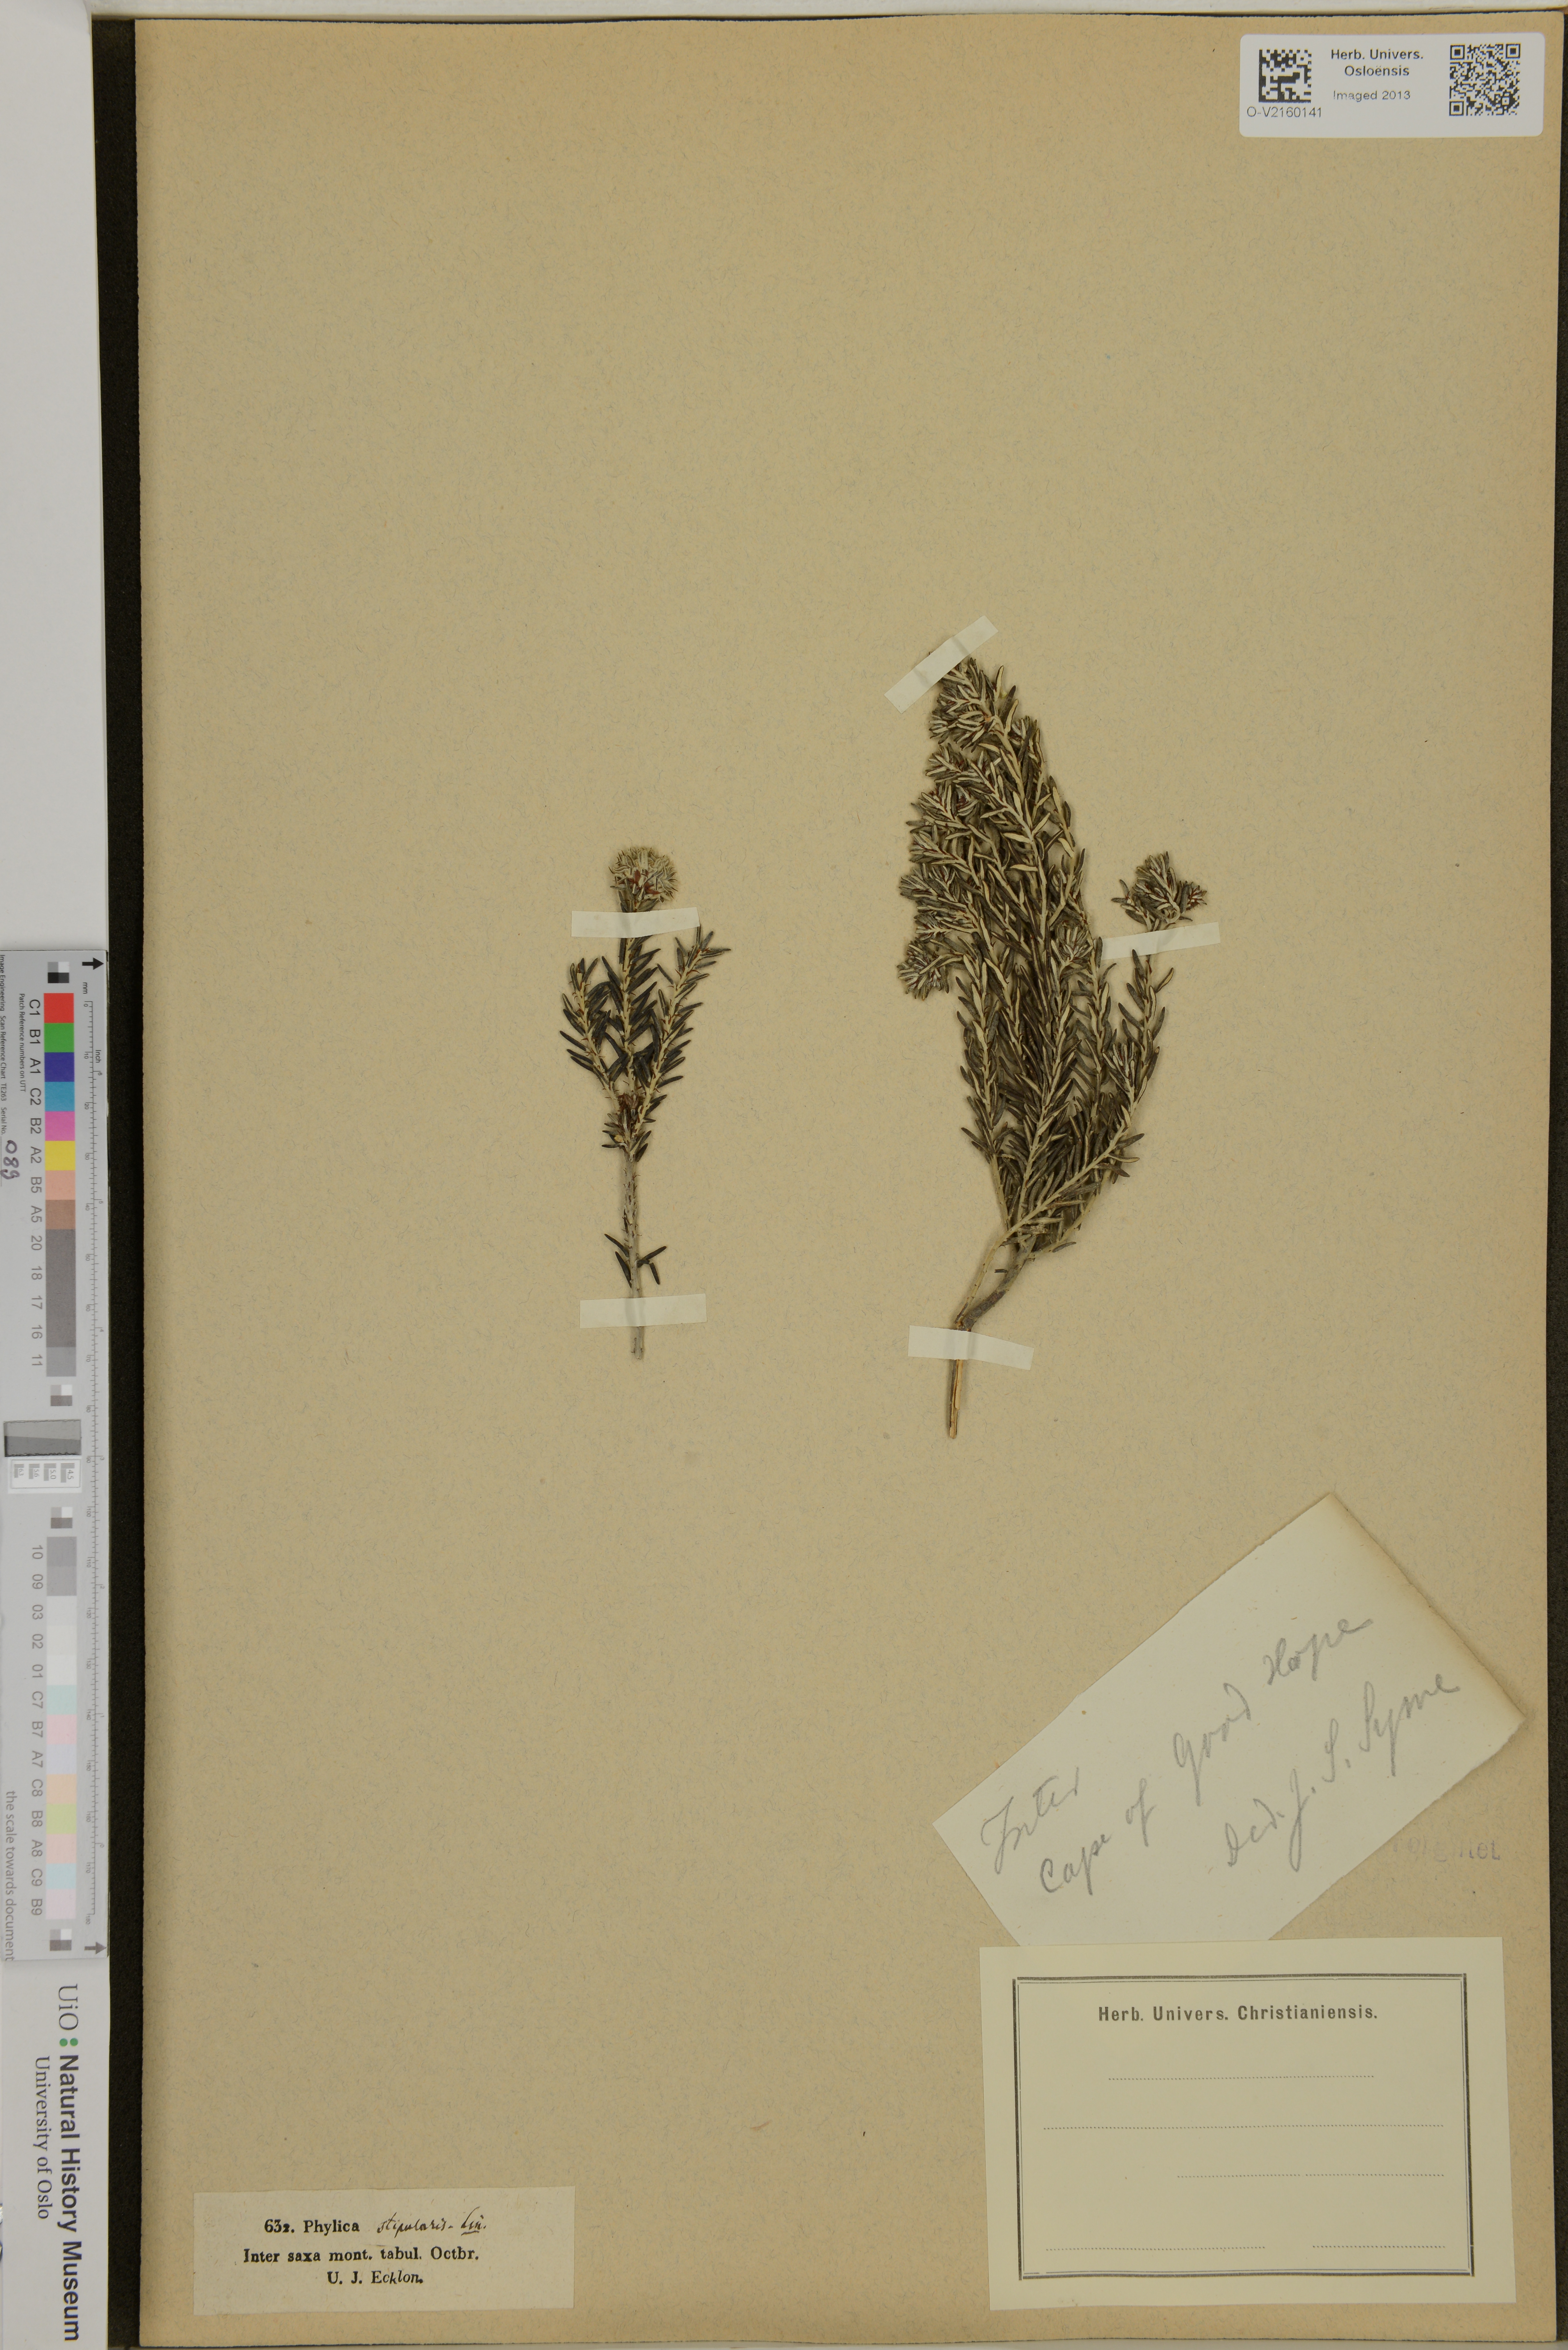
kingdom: Plantae
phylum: Tracheophyta
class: Magnoliopsida
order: Rosales
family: Rhamnaceae
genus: Trichocephalus
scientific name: Trichocephalus stipularis
